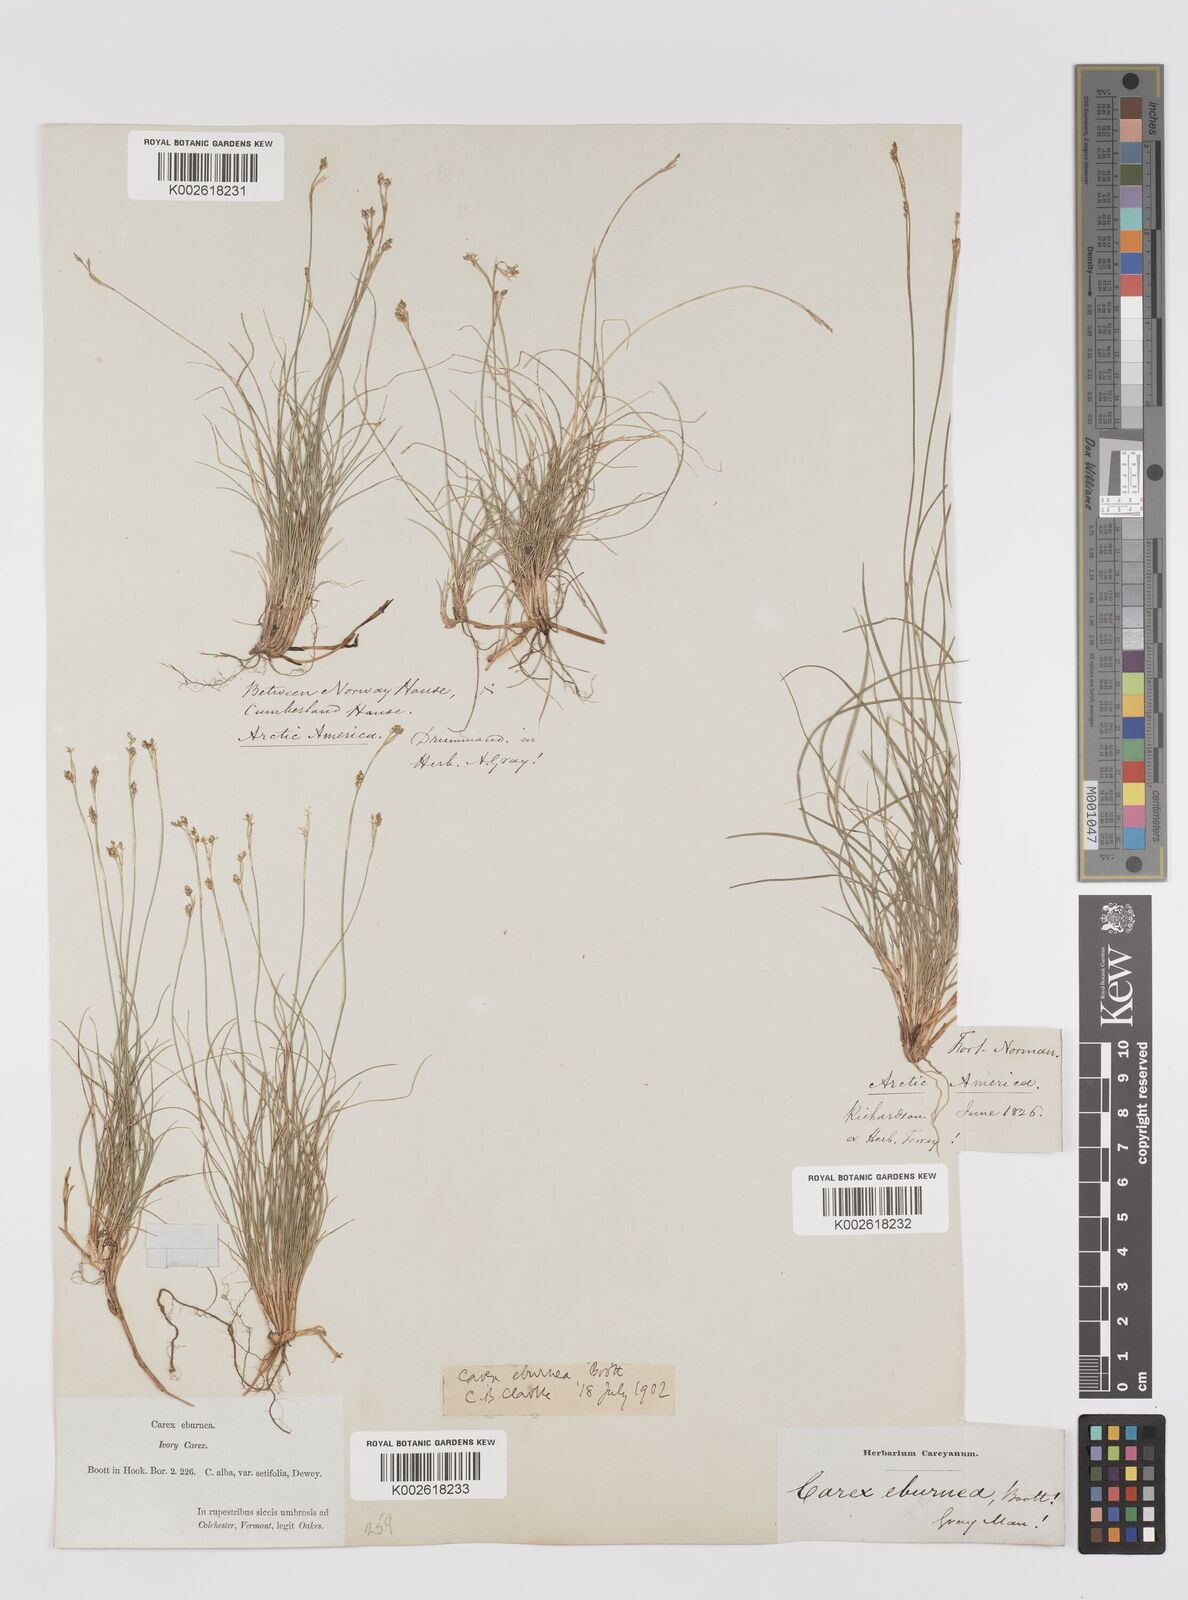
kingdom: Plantae
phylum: Tracheophyta
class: Liliopsida
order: Poales
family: Cyperaceae
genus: Carex
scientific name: Carex eburnea
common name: Bristle-leaved sedge
